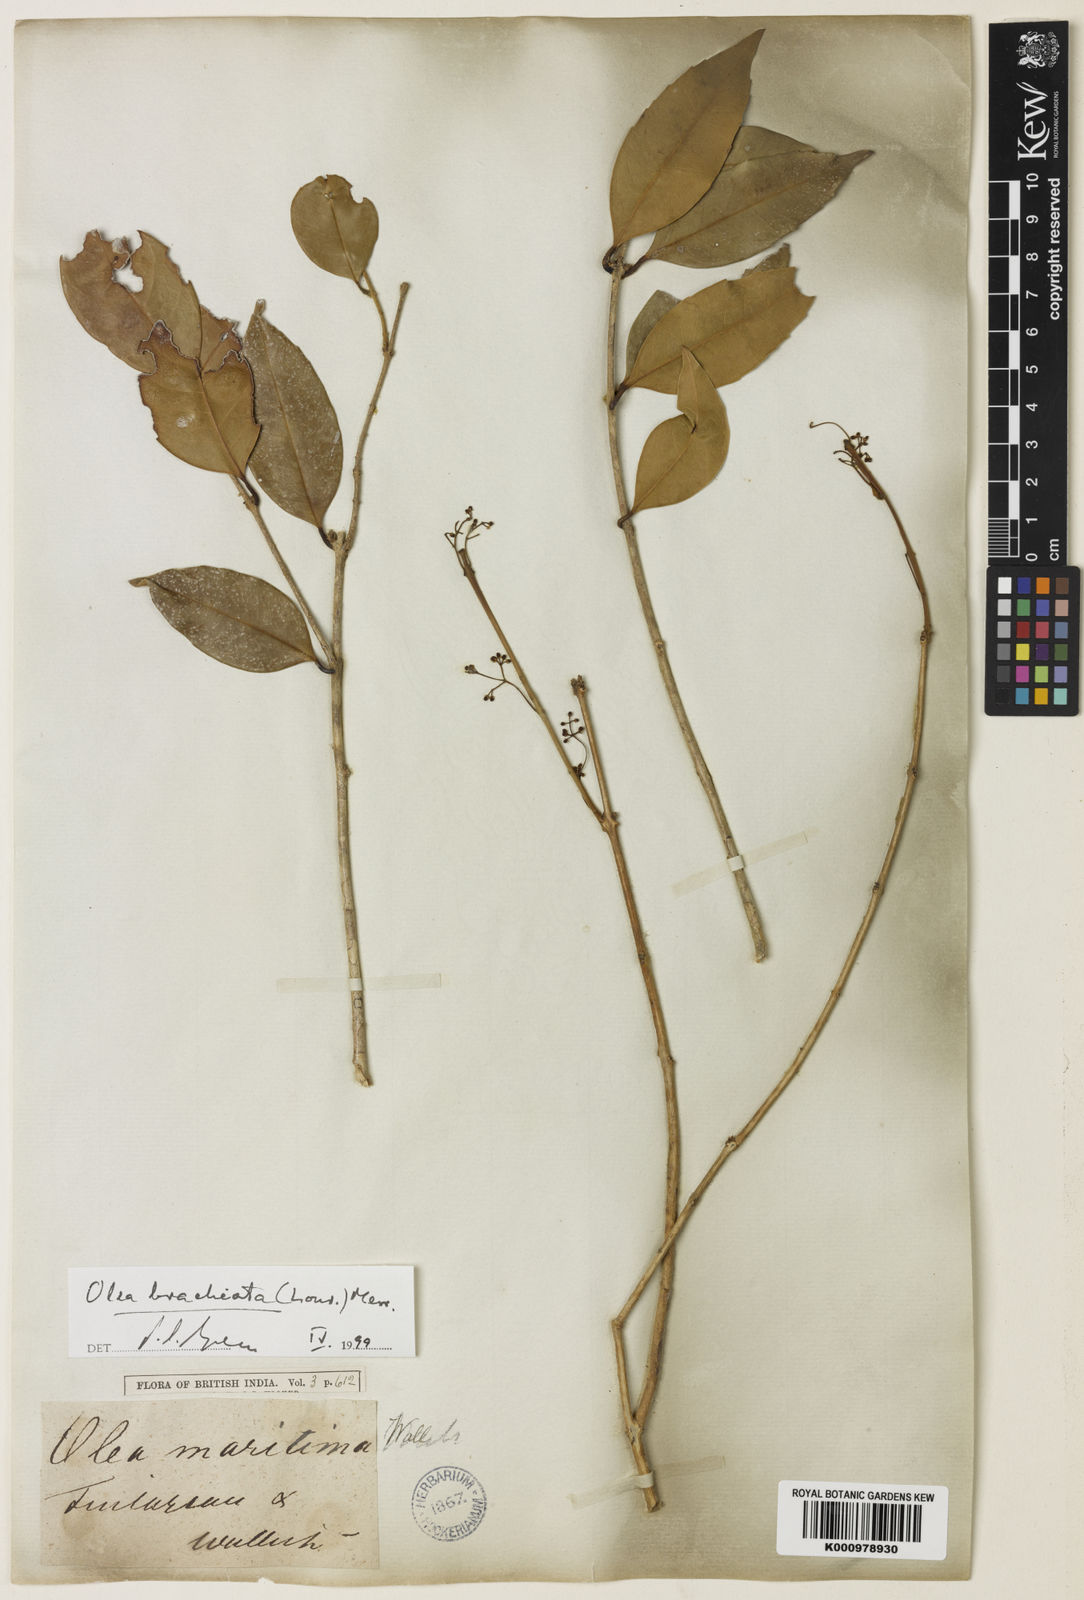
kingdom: Plantae
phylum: Tracheophyta
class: Magnoliopsida
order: Lamiales
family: Oleaceae
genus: Tetrapilus
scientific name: Tetrapilus brachiatus
